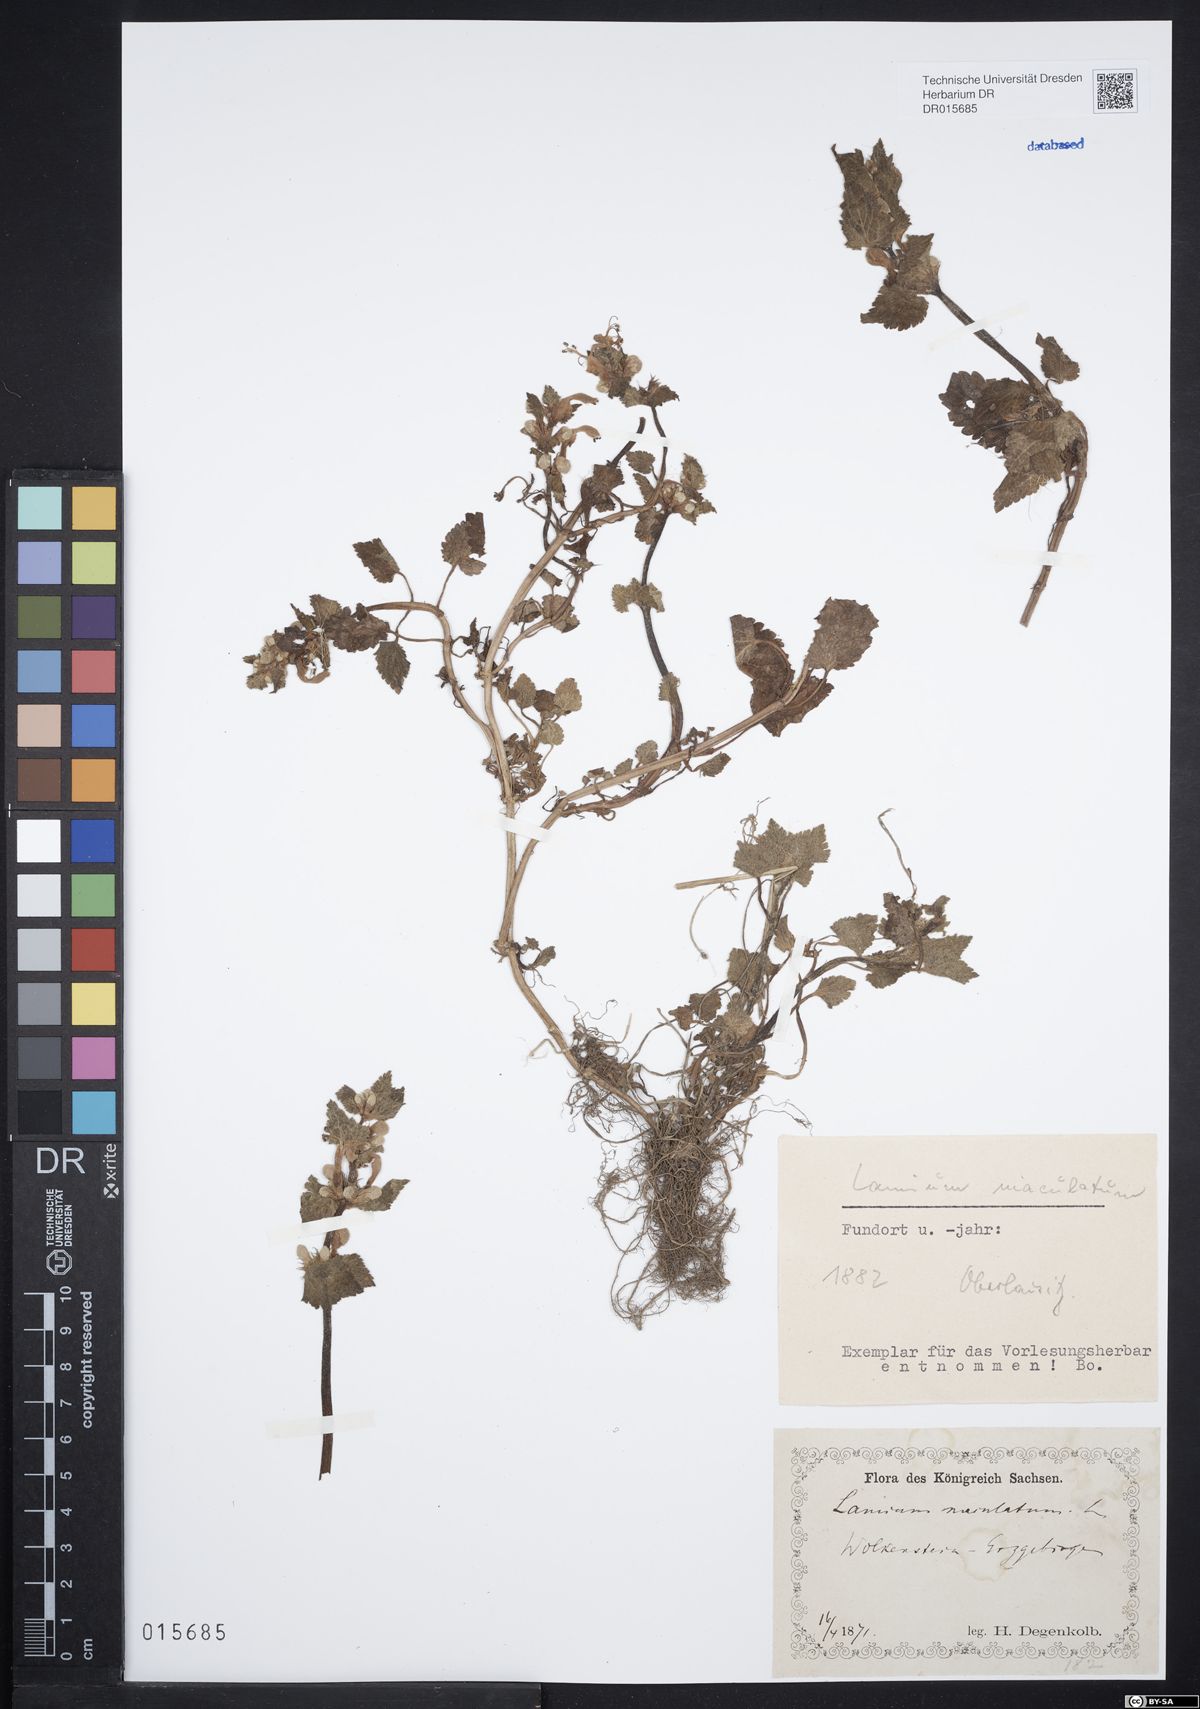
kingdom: Plantae
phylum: Tracheophyta
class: Magnoliopsida
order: Lamiales
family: Lamiaceae
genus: Lamium
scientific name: Lamium maculatum
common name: Spotted dead-nettle
